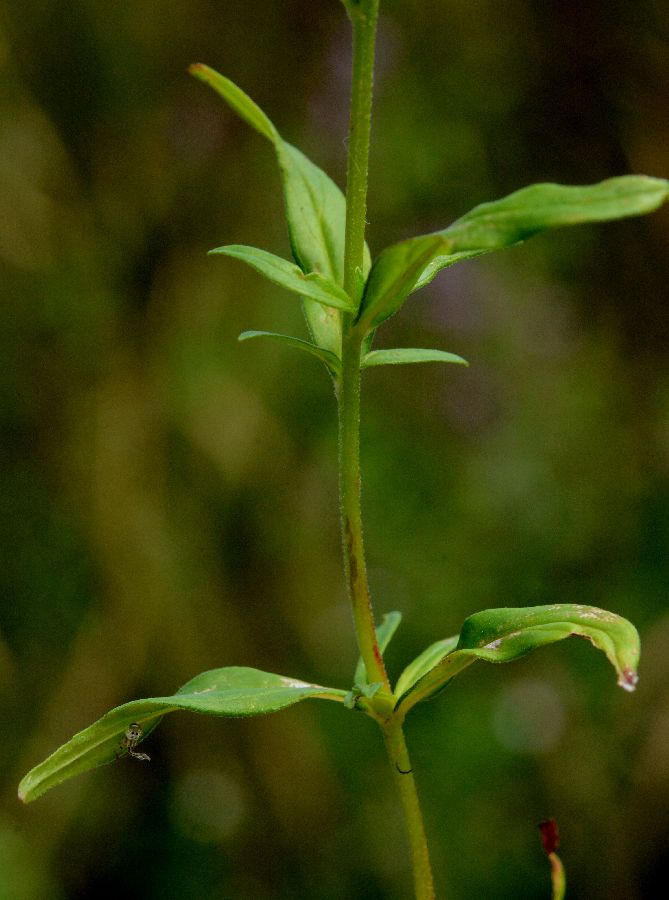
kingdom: Plantae
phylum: Tracheophyta
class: Magnoliopsida
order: Myrtales
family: Onagraceae
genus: Epilobium
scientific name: Epilobium palustre
